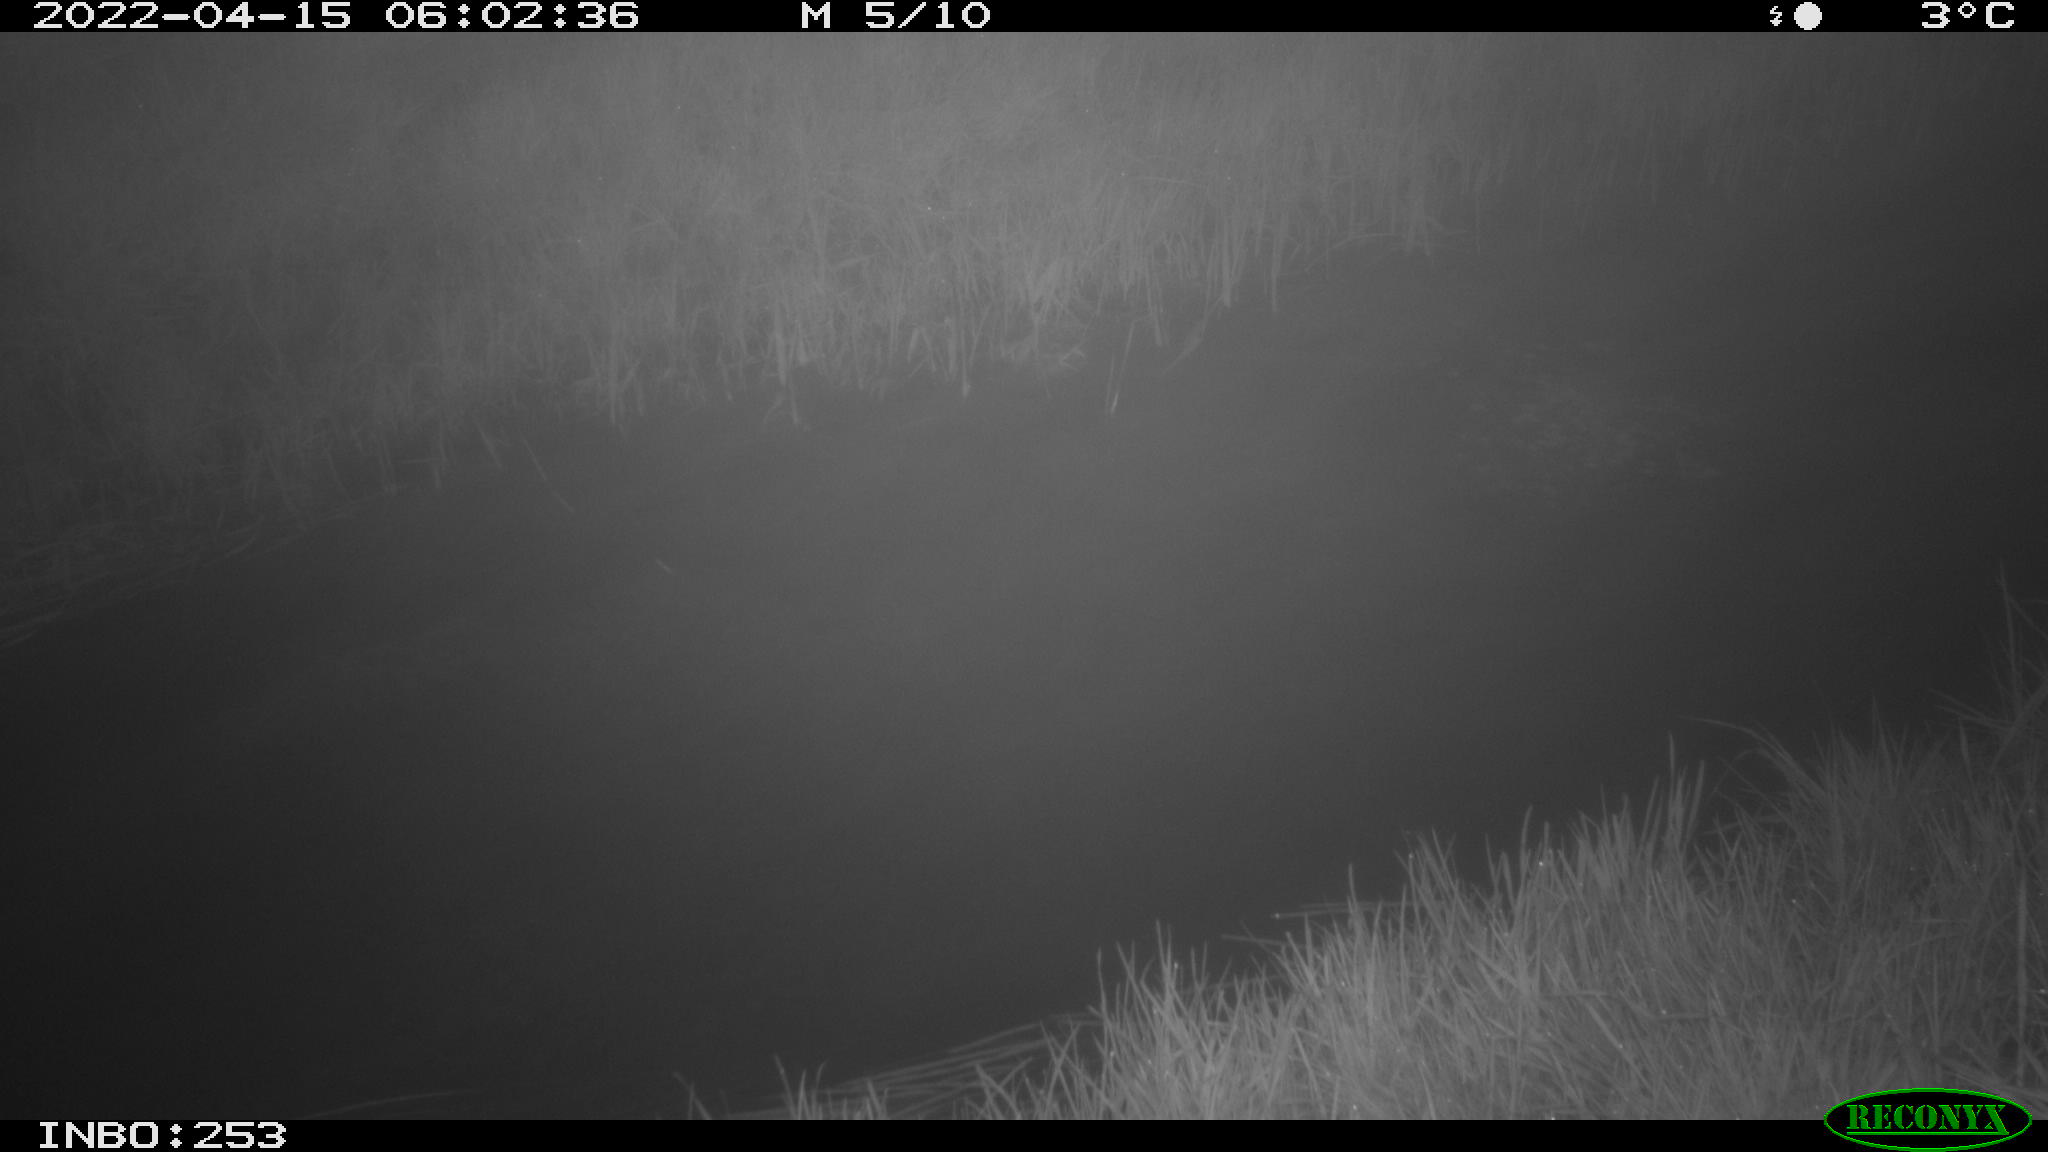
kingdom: Animalia
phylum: Chordata
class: Aves
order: Anseriformes
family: Anatidae
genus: Anas
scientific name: Anas platyrhynchos
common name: Mallard
